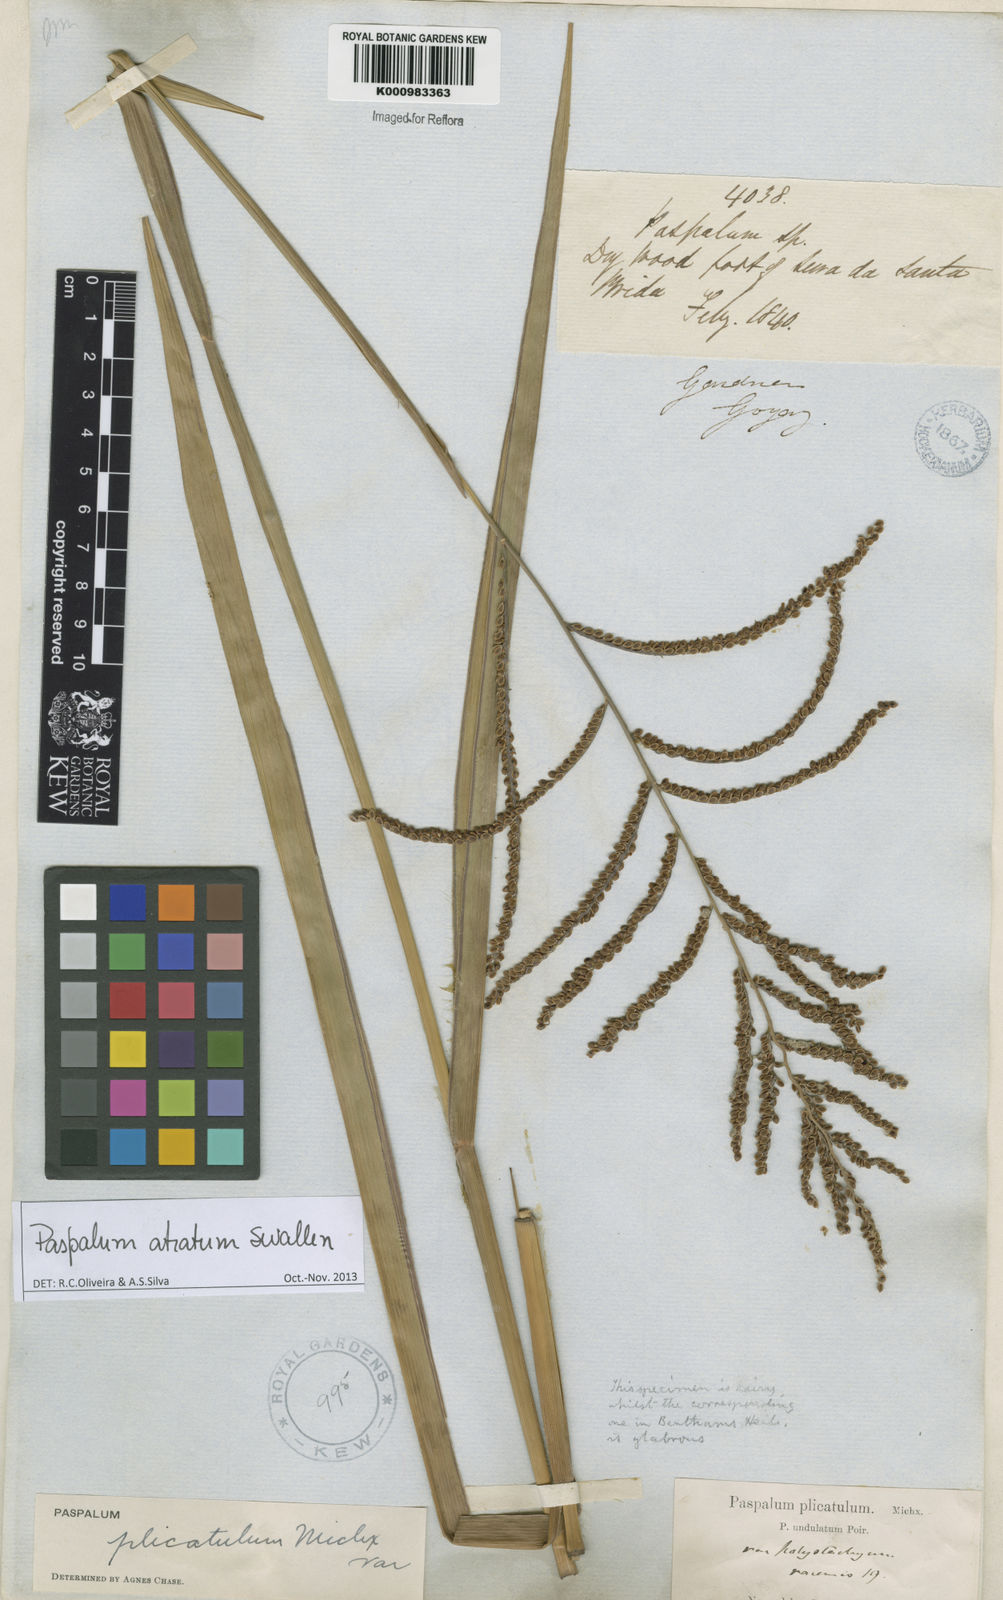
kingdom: Plantae
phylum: Tracheophyta
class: Liliopsida
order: Poales
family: Poaceae
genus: Paspalum
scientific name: Paspalum atratum
